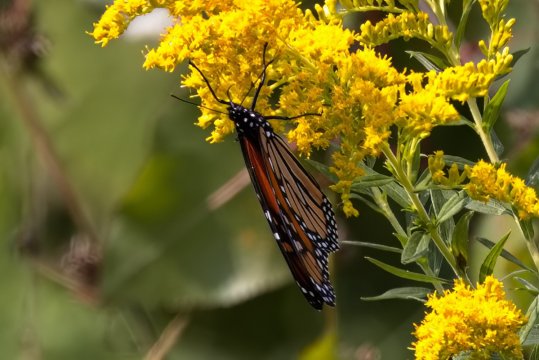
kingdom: Animalia
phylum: Arthropoda
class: Insecta
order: Lepidoptera
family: Nymphalidae
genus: Danaus
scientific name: Danaus plexippus
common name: Monarch
